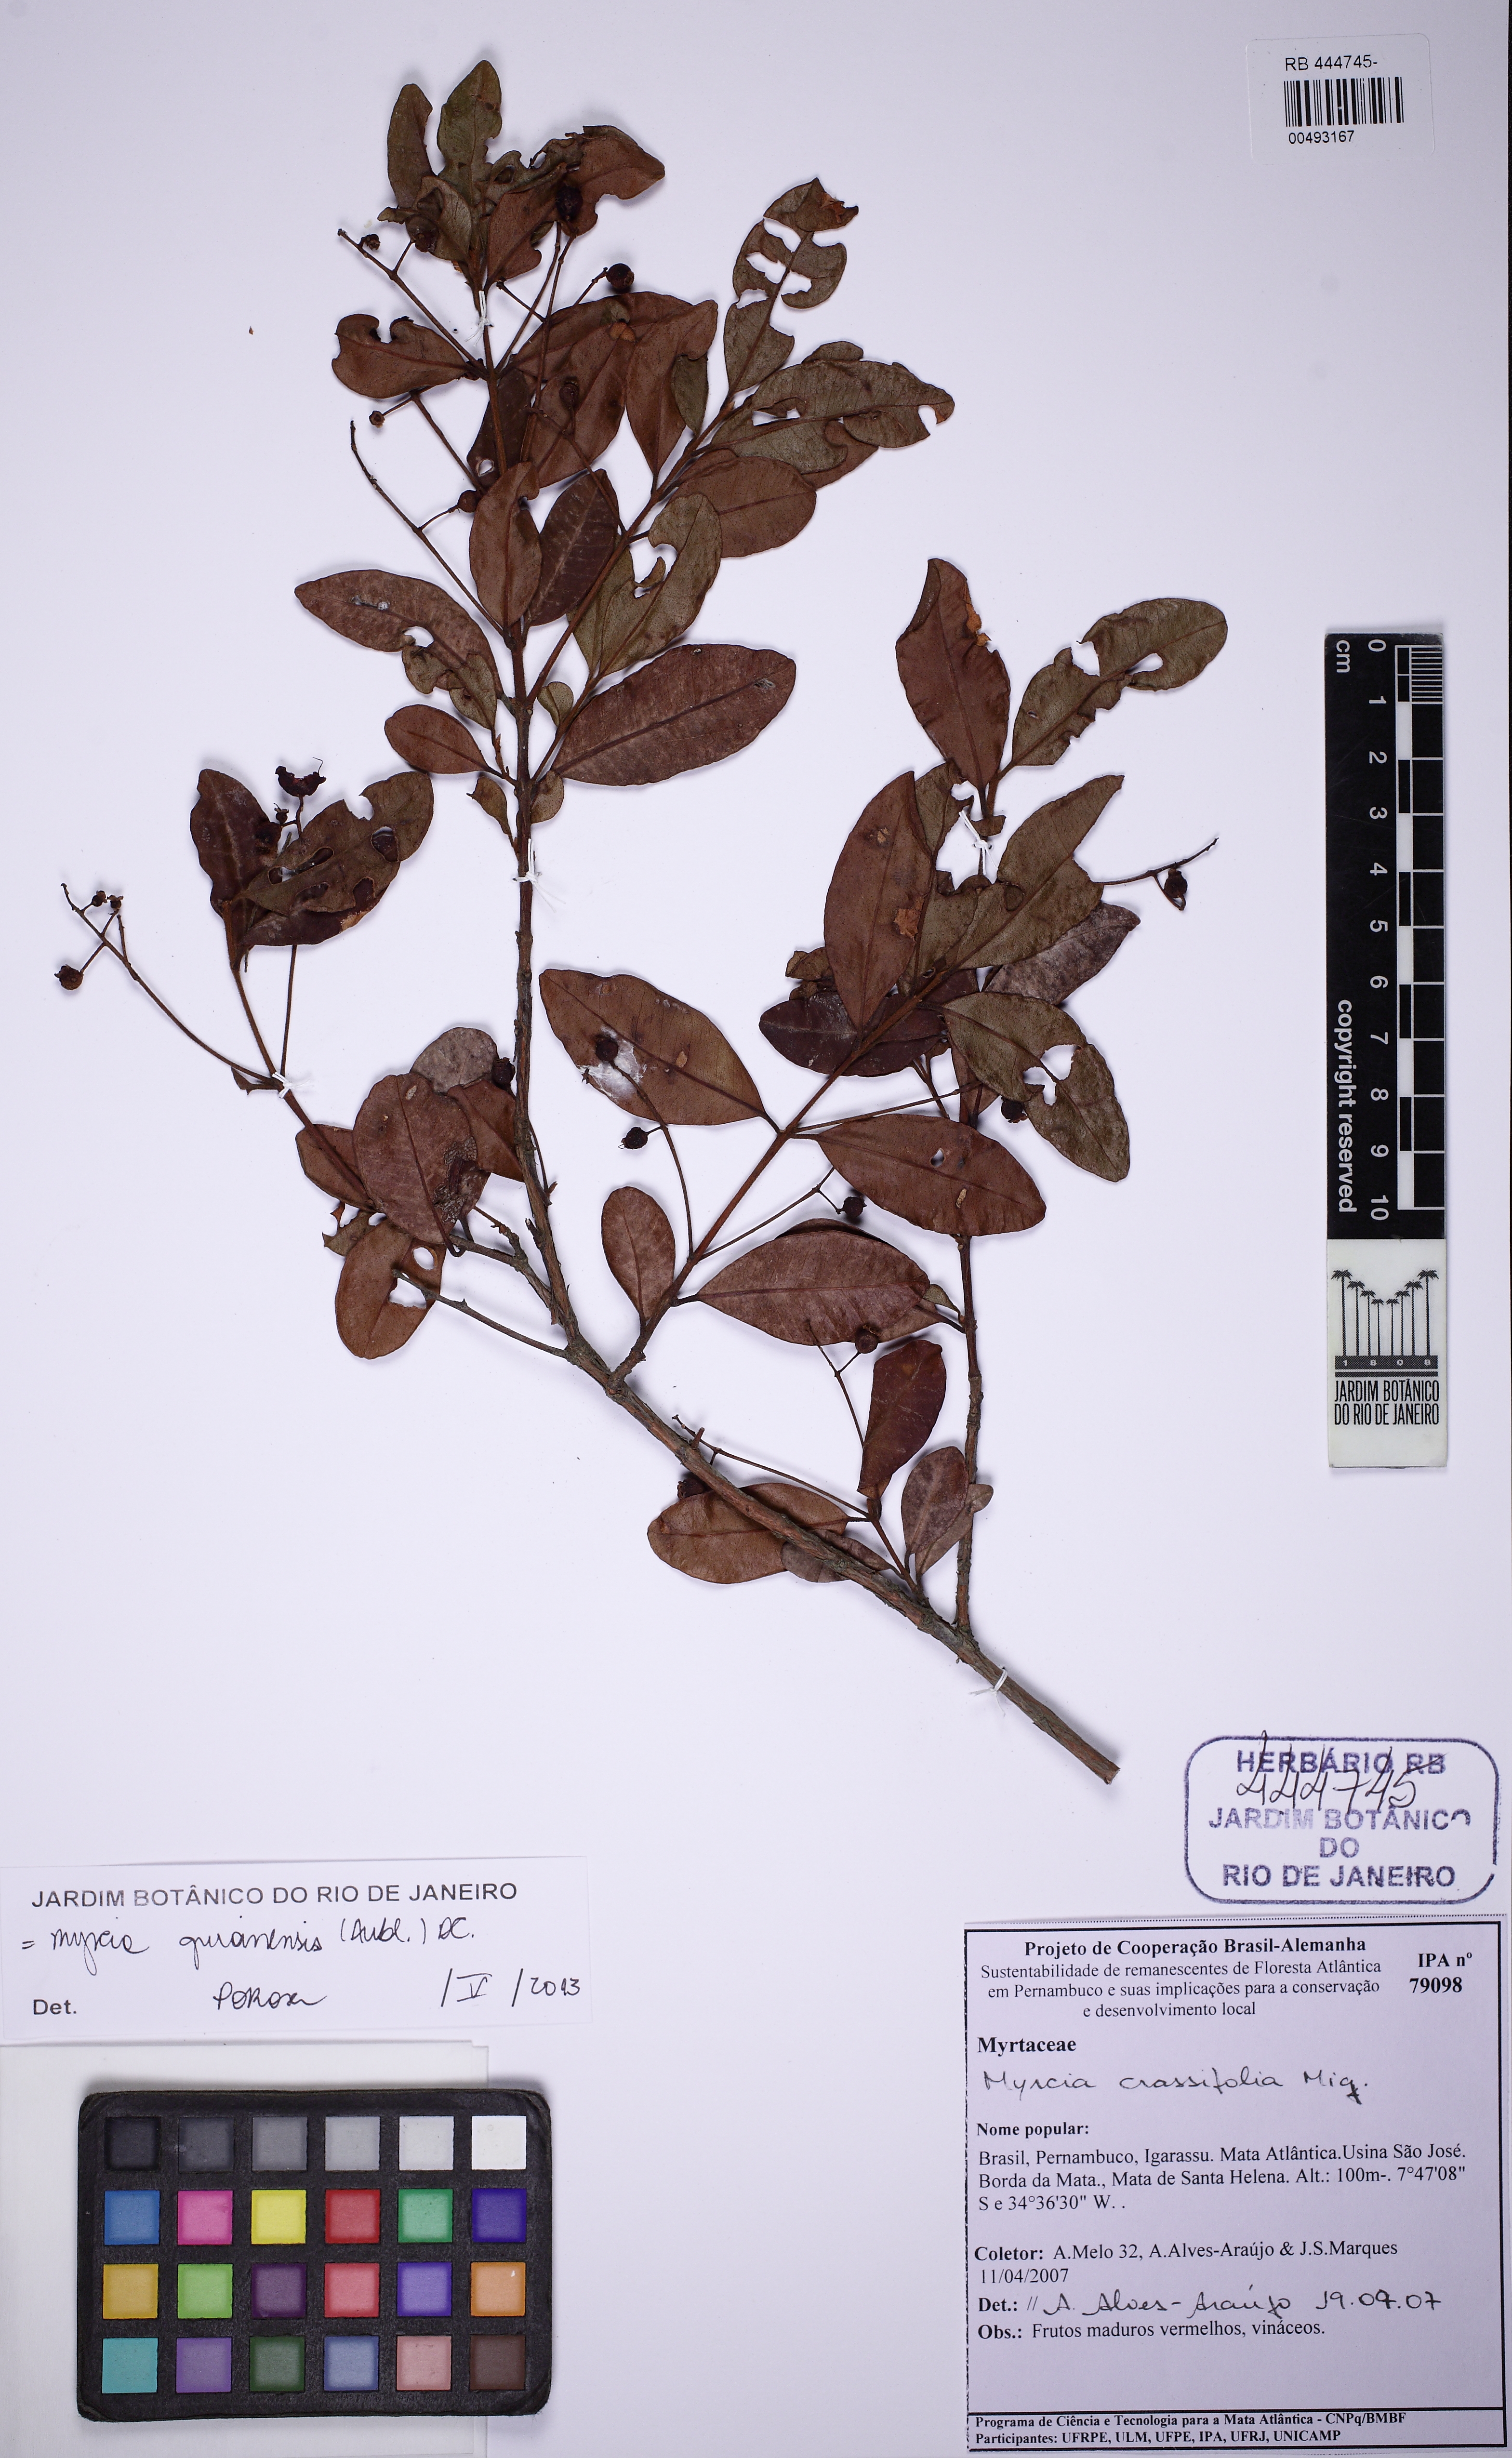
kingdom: Plantae
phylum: Tracheophyta
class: Magnoliopsida
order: Myrtales
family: Myrtaceae
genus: Myrcia
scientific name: Myrcia guianensis
